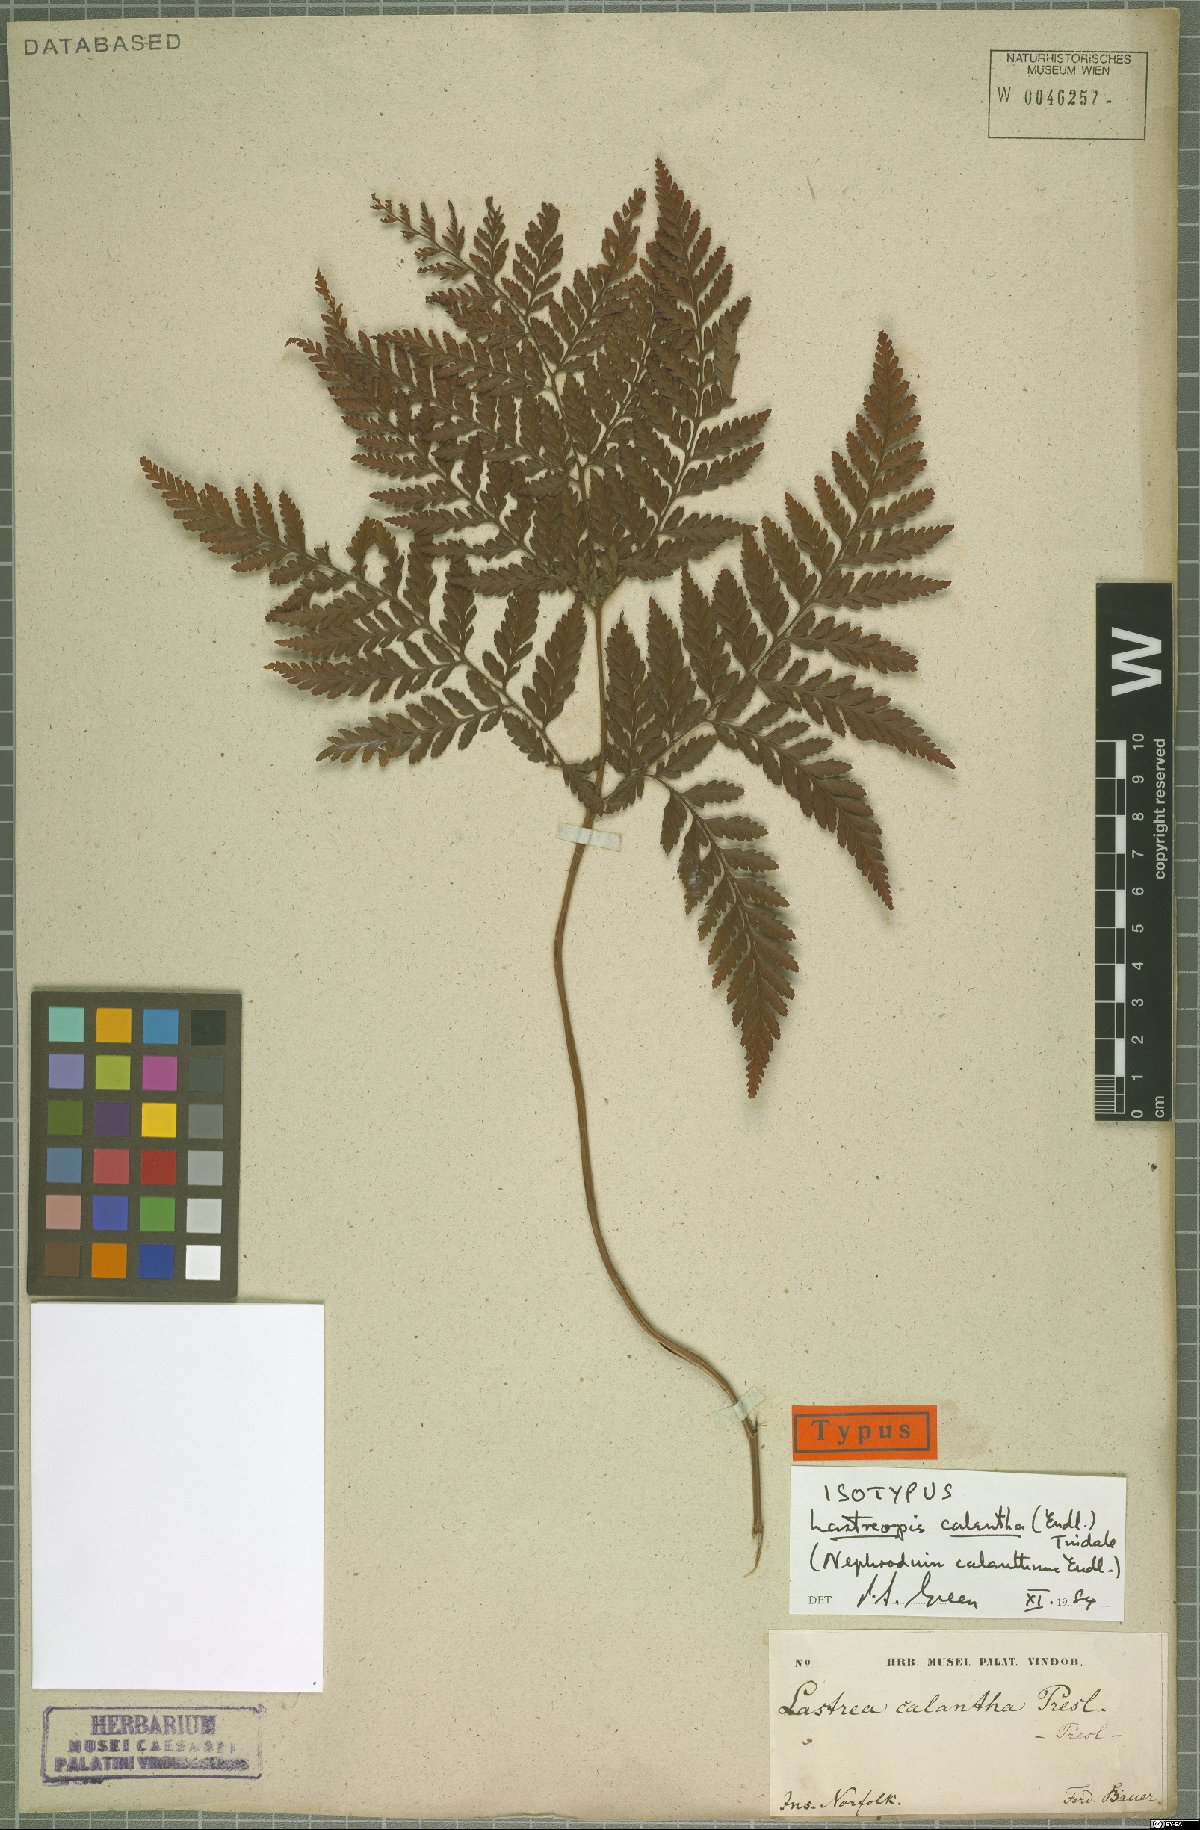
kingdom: Plantae
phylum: Tracheophyta
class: Polypodiopsida
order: Polypodiales
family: Dryopteridaceae
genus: Parapolystichum
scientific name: Parapolystichum calanthum
